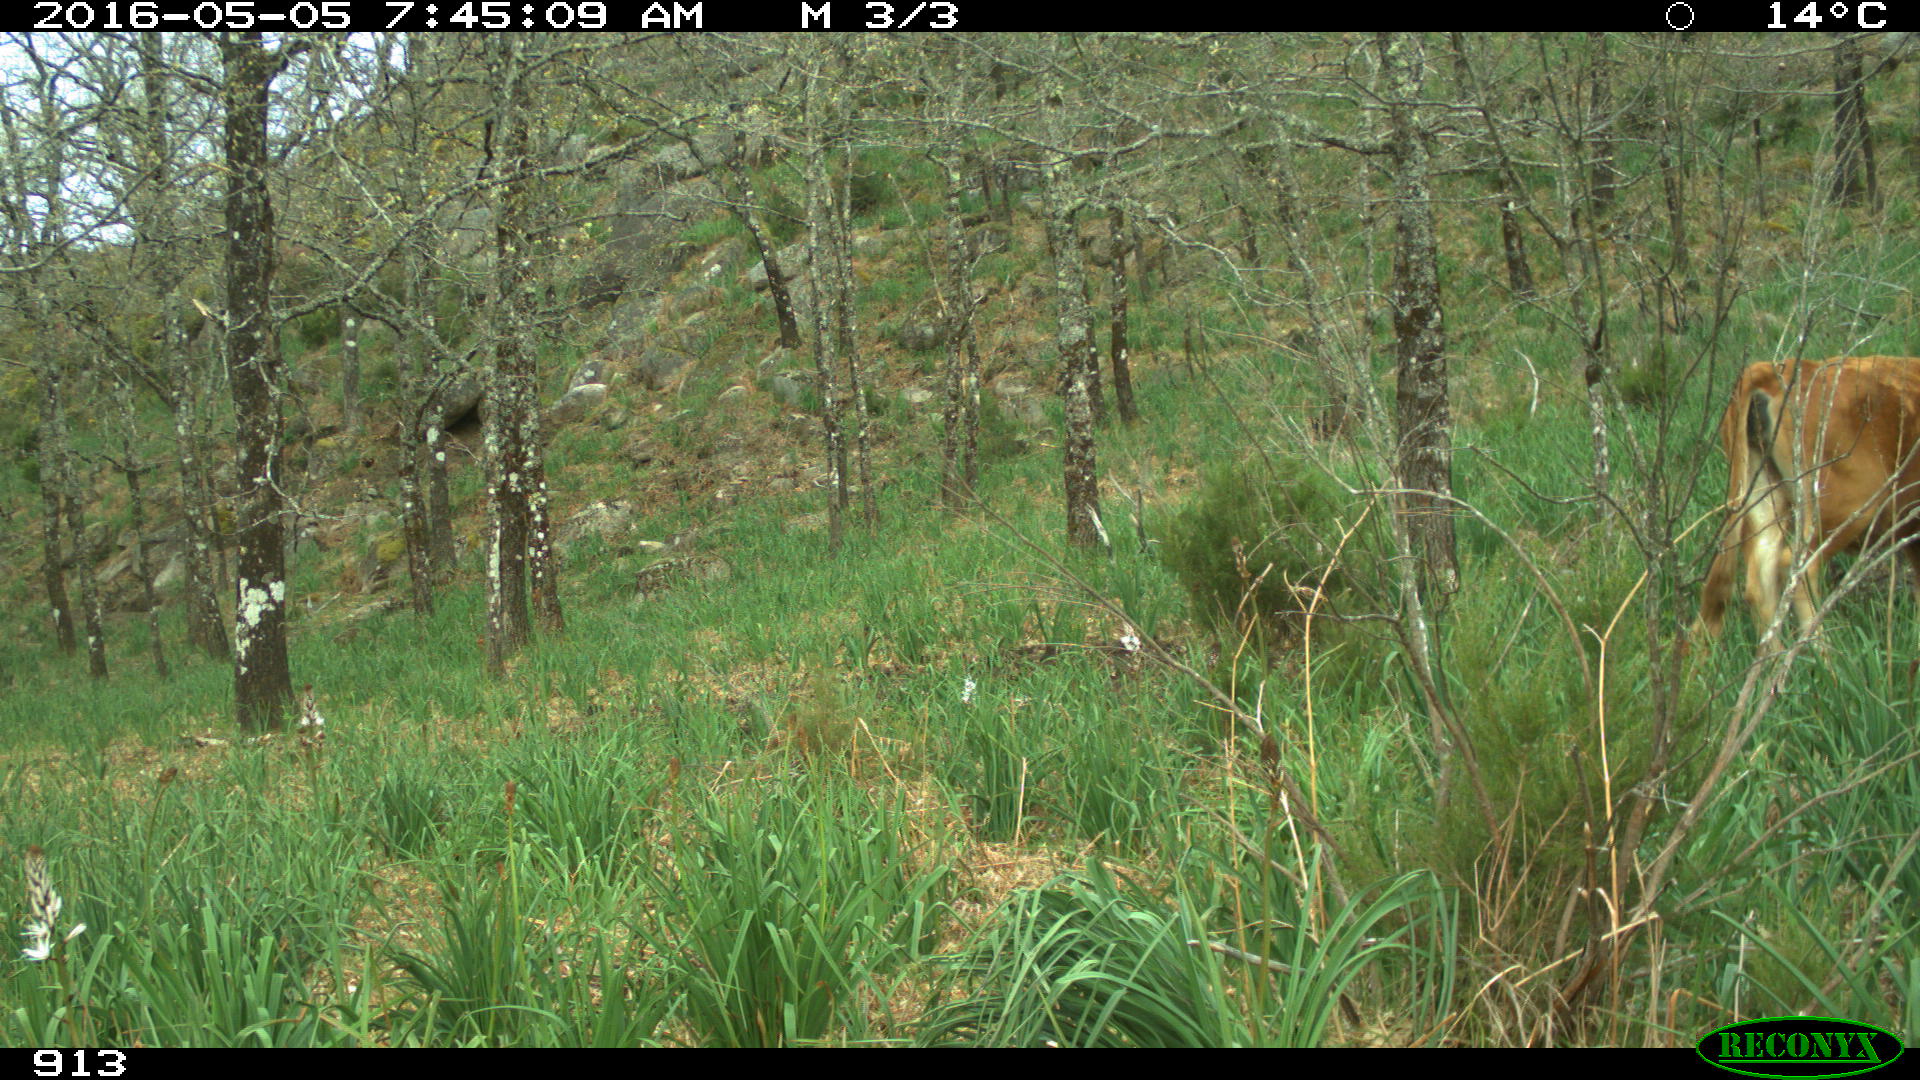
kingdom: Animalia
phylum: Chordata
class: Mammalia
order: Artiodactyla
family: Bovidae
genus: Bos
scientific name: Bos taurus
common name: Domesticated cattle
